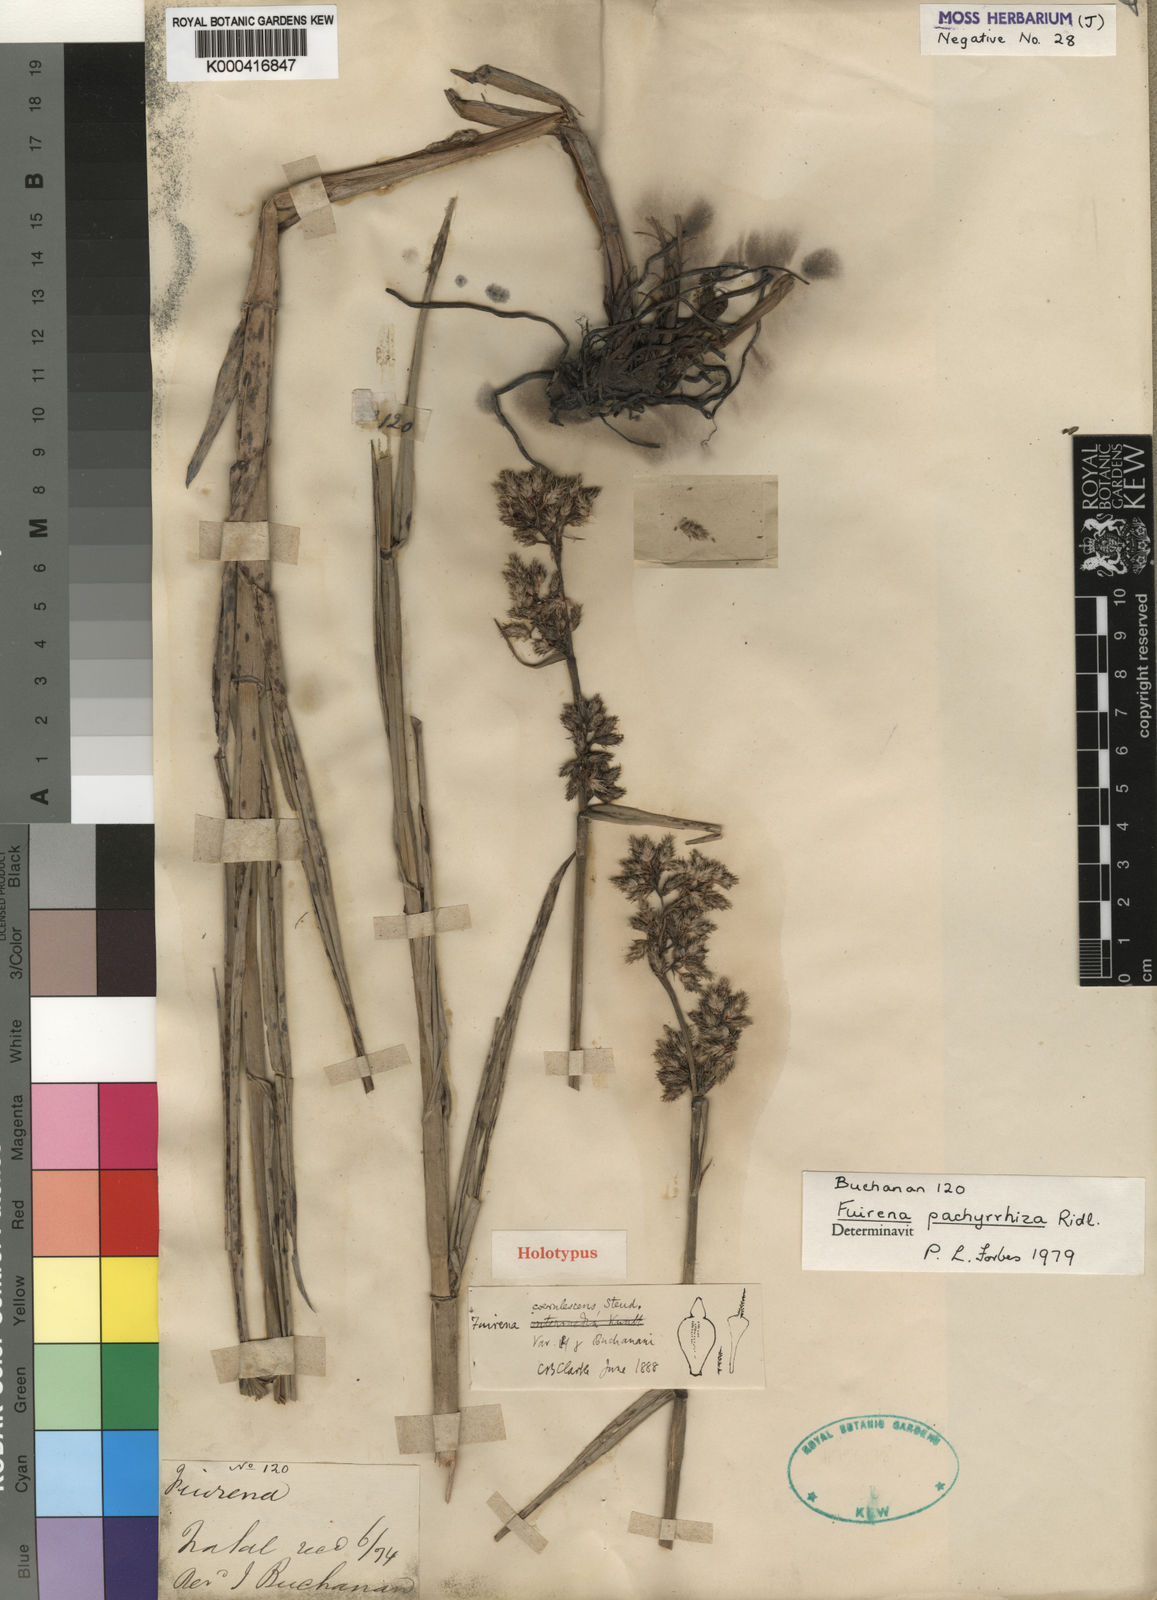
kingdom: Plantae
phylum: Tracheophyta
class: Liliopsida
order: Poales
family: Cyperaceae
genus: Fuirena
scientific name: Fuirena pachyrrhiza
